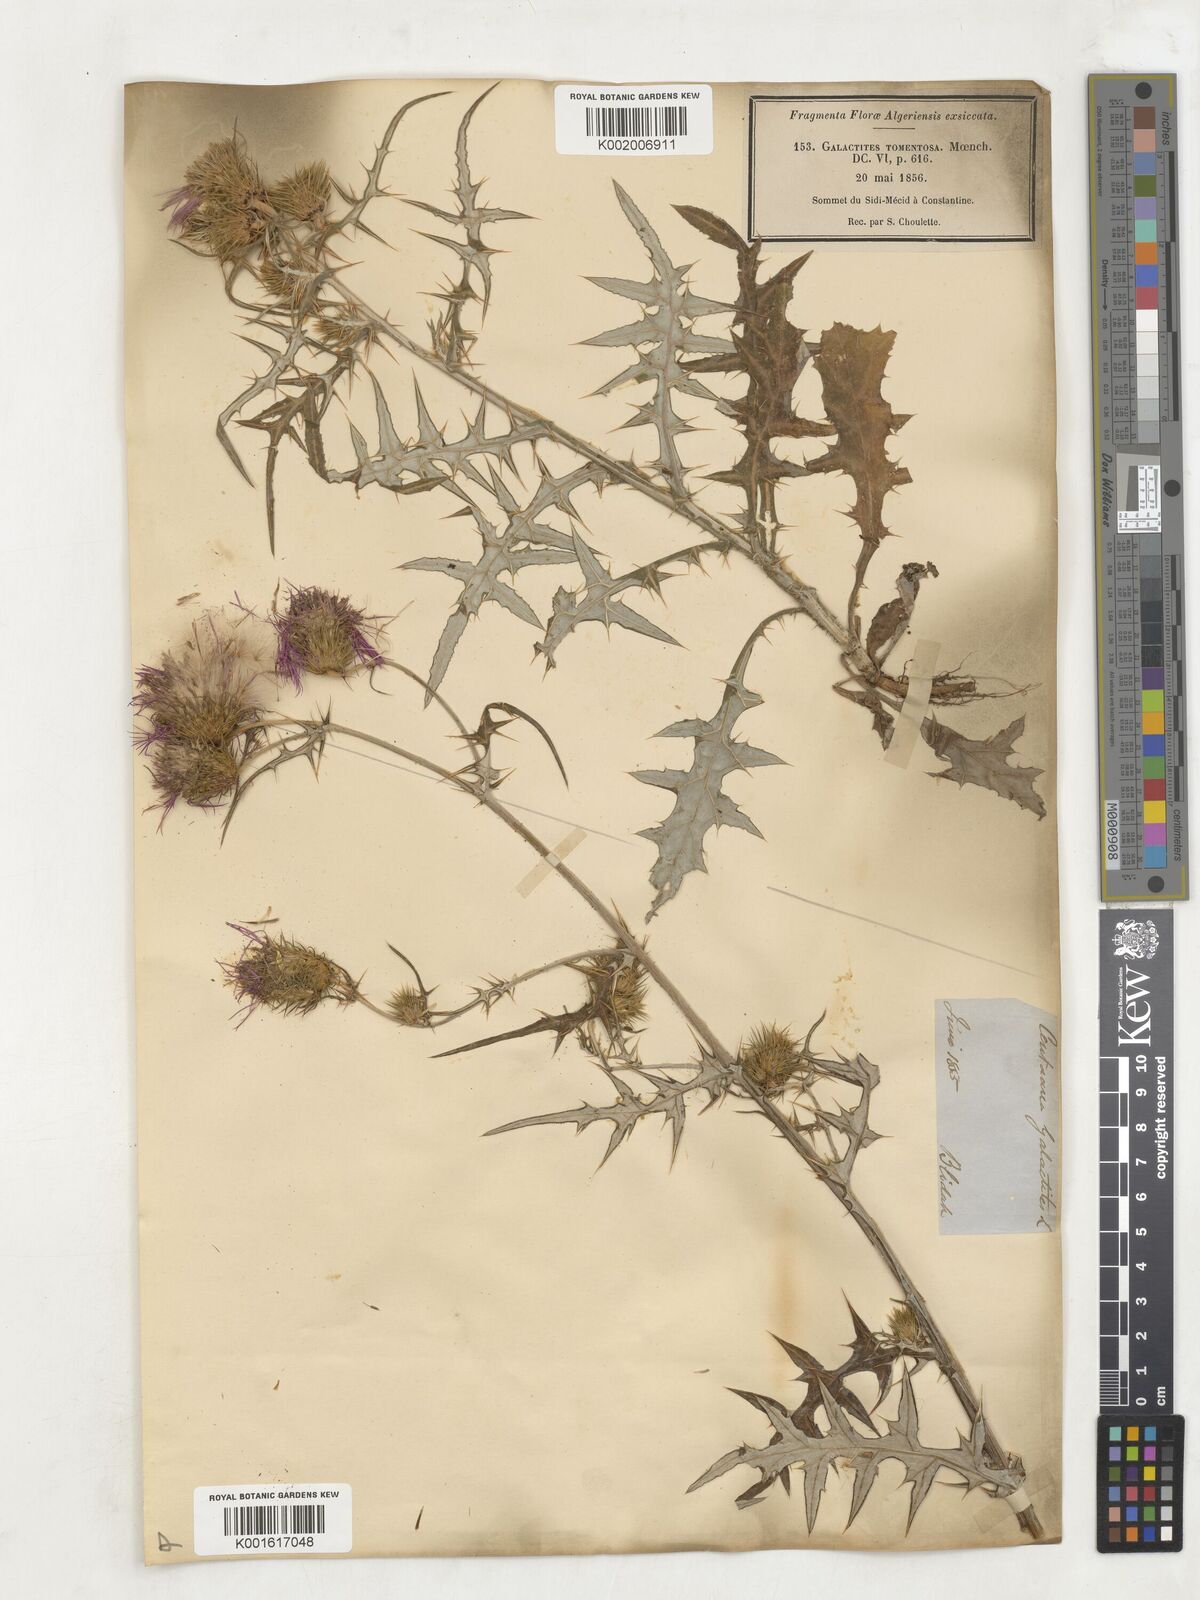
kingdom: Plantae
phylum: Tracheophyta
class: Magnoliopsida
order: Asterales
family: Asteraceae
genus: Galactites
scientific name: Galactites tomentosa
